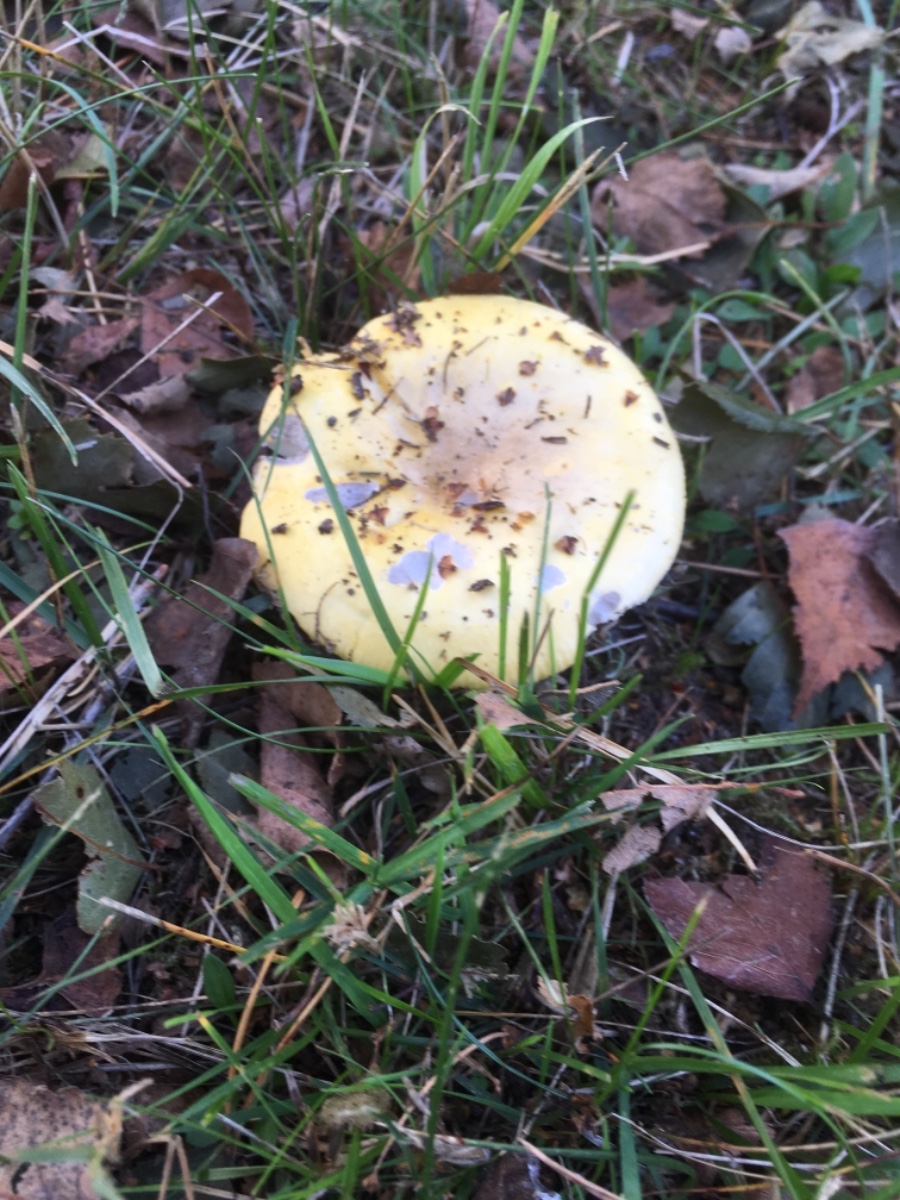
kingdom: Fungi
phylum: Basidiomycota
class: Agaricomycetes
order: Russulales
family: Russulaceae
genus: Russula
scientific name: Russula claroflava
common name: birke-skørhat
